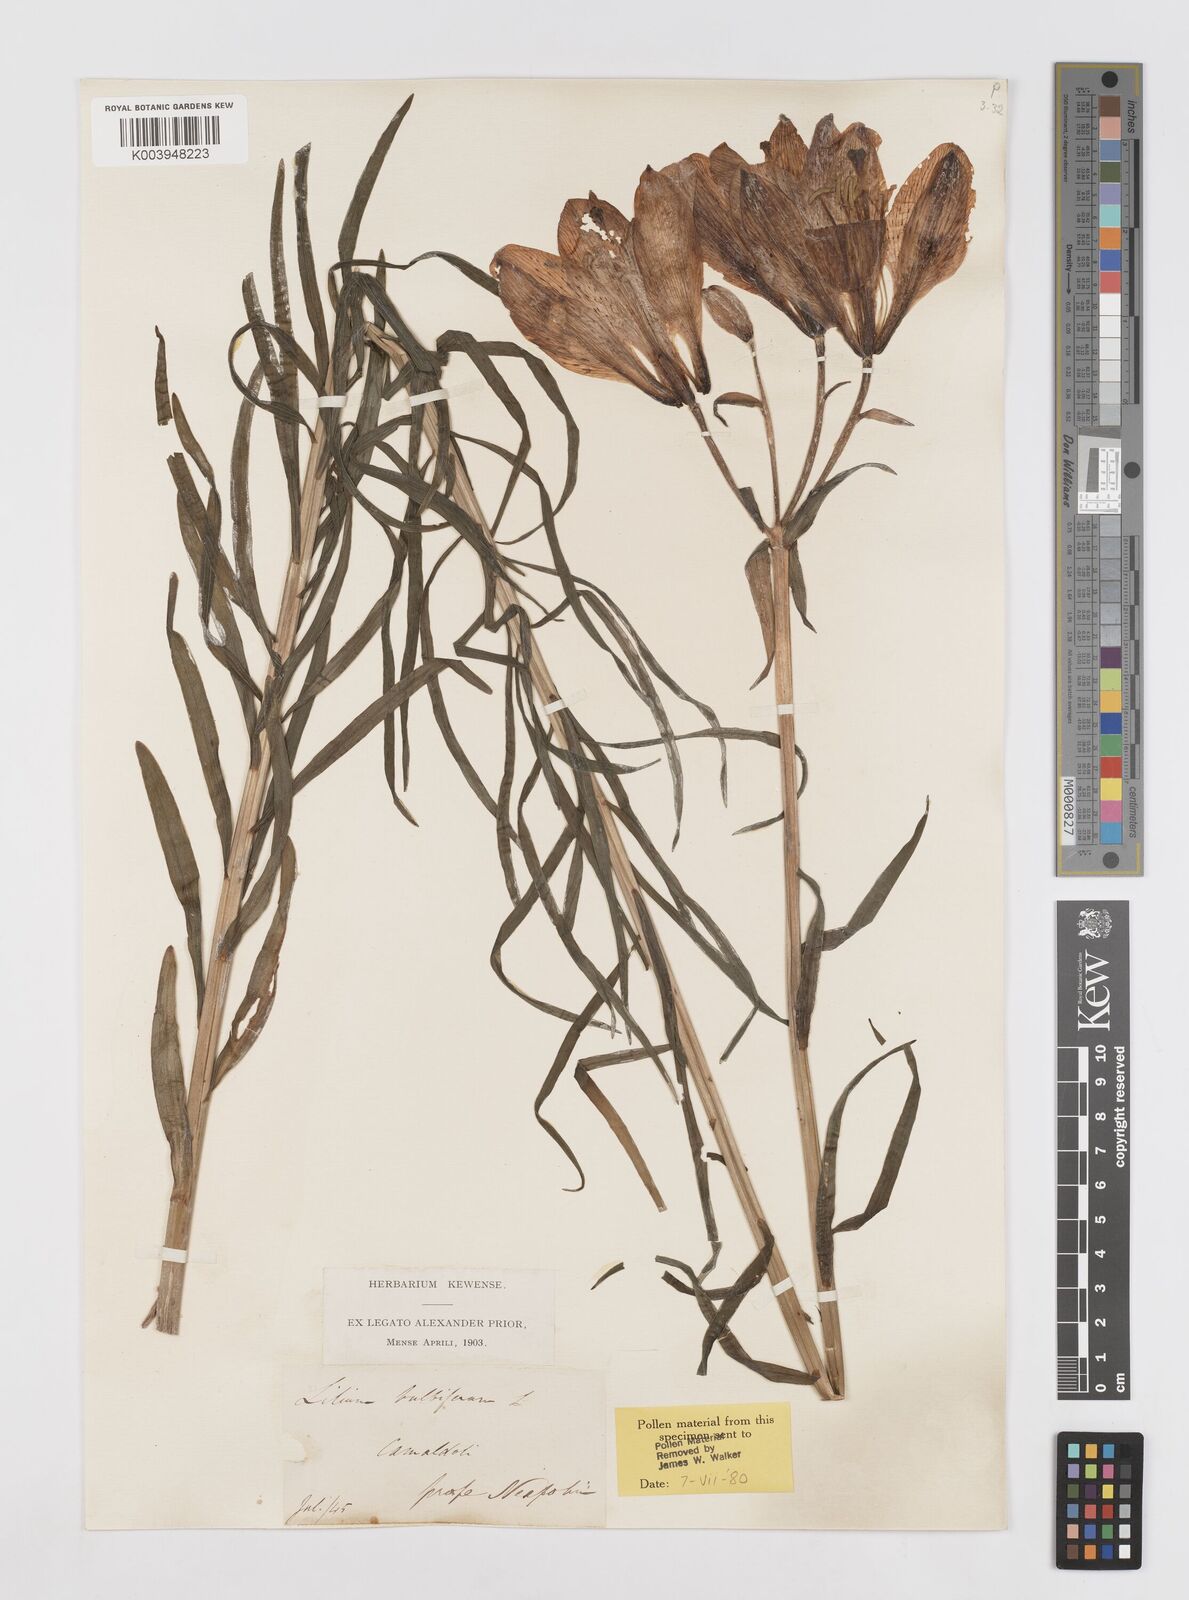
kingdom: Plantae
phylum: Tracheophyta
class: Liliopsida
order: Liliales
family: Liliaceae
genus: Lilium
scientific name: Lilium bulbiferum
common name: Orange lily
